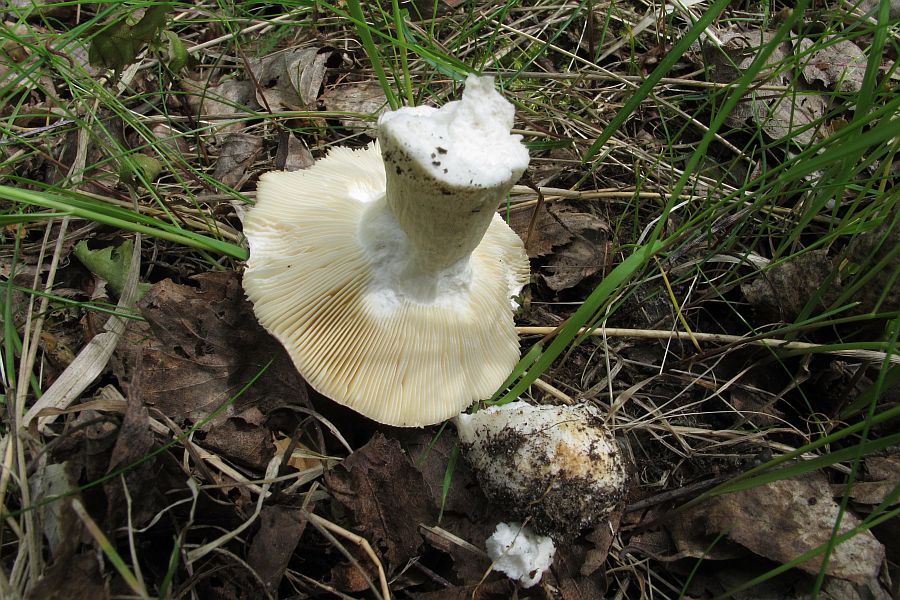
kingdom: Fungi
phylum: Basidiomycota
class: Agaricomycetes
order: Russulales
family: Russulaceae
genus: Russula
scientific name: Russula
